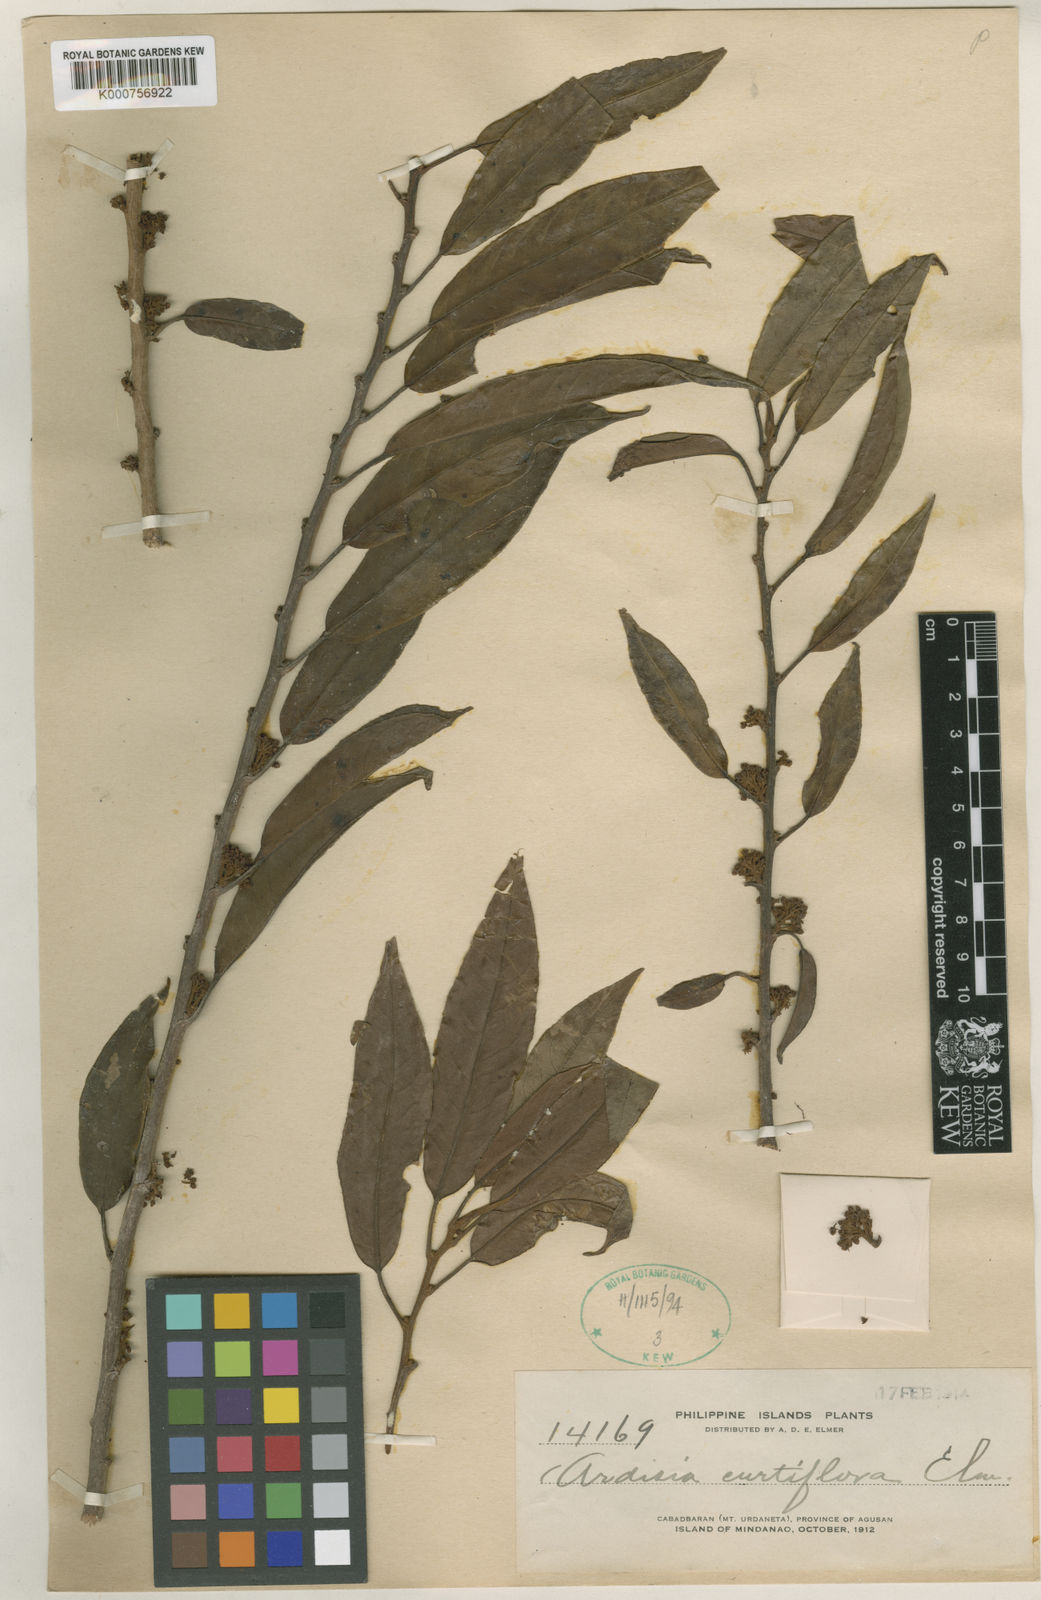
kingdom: Plantae
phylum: Tracheophyta
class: Magnoliopsida
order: Ericales
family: Primulaceae
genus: Ardisia
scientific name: Ardisia curtiflora
